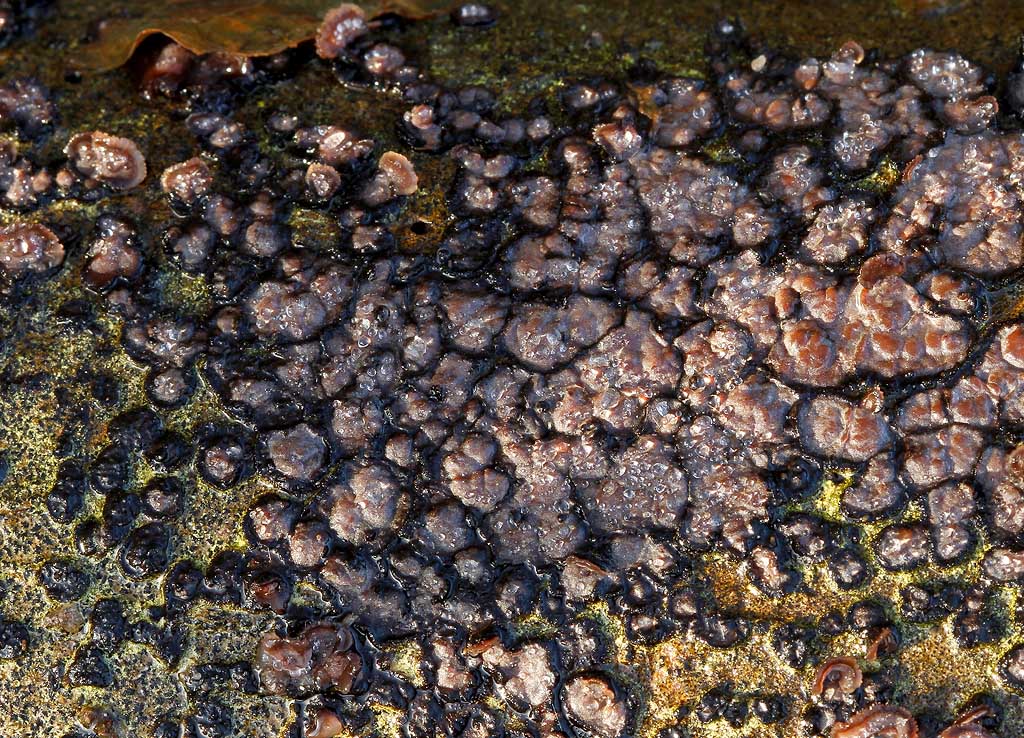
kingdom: Fungi
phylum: Basidiomycota
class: Agaricomycetes
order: Russulales
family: Peniophoraceae
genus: Peniophora
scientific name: Peniophora limitata
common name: mørkrandet voksskind
